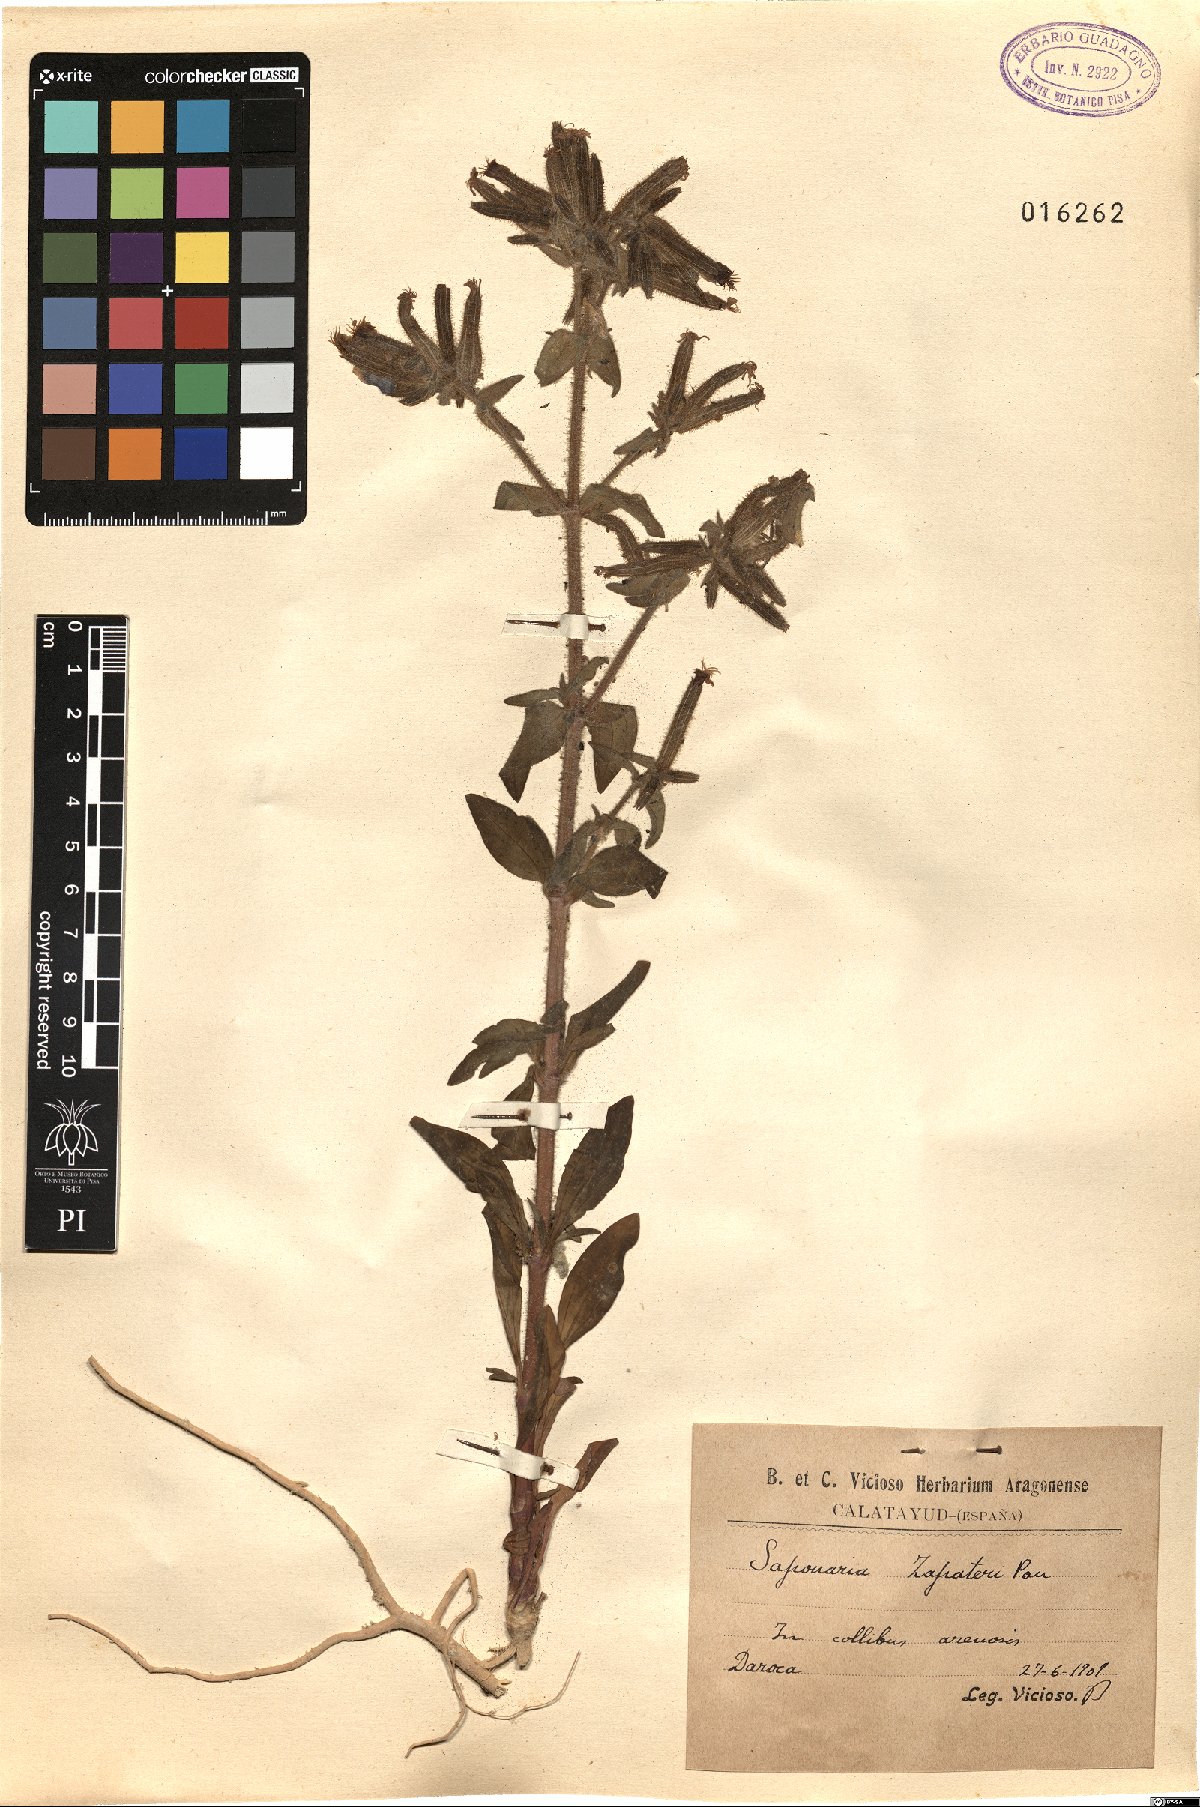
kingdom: Plantae
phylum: Tracheophyta
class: Magnoliopsida
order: Caryophyllales
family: Caryophyllaceae
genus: Saponaria
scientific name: Saponaria glutinosa
